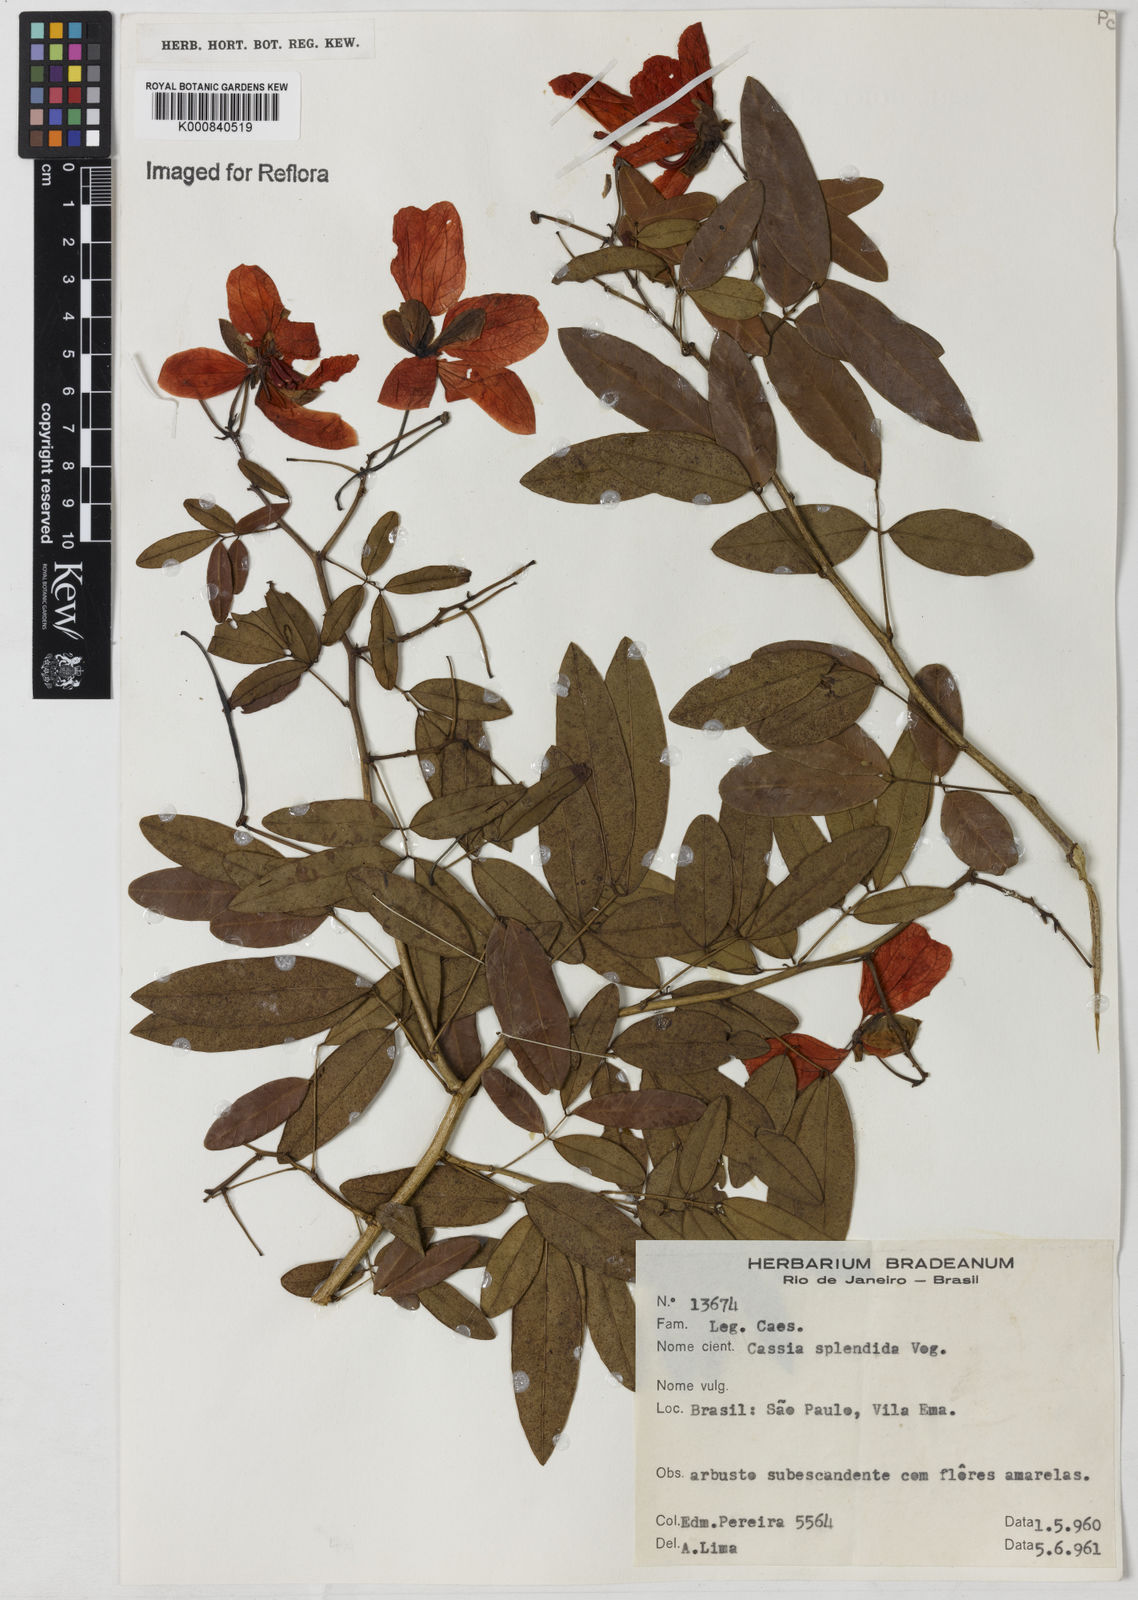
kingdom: Plantae
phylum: Tracheophyta
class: Magnoliopsida
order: Fabales
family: Fabaceae
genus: Senna
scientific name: Senna splendida
